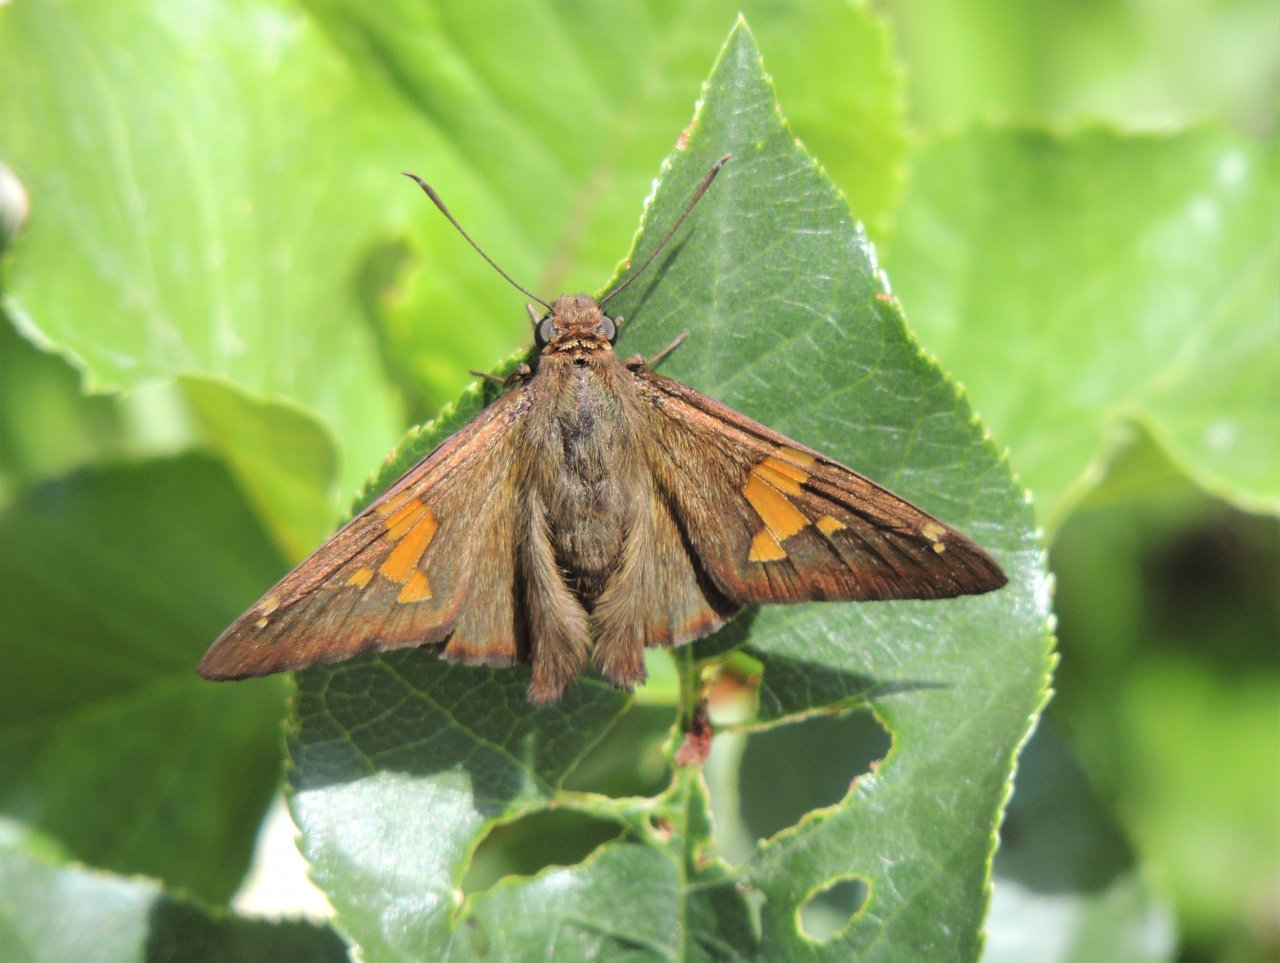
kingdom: Animalia
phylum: Arthropoda
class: Insecta
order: Lepidoptera
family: Hesperiidae
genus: Epargyreus
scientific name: Epargyreus clarus
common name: Silver-spotted Skipper
